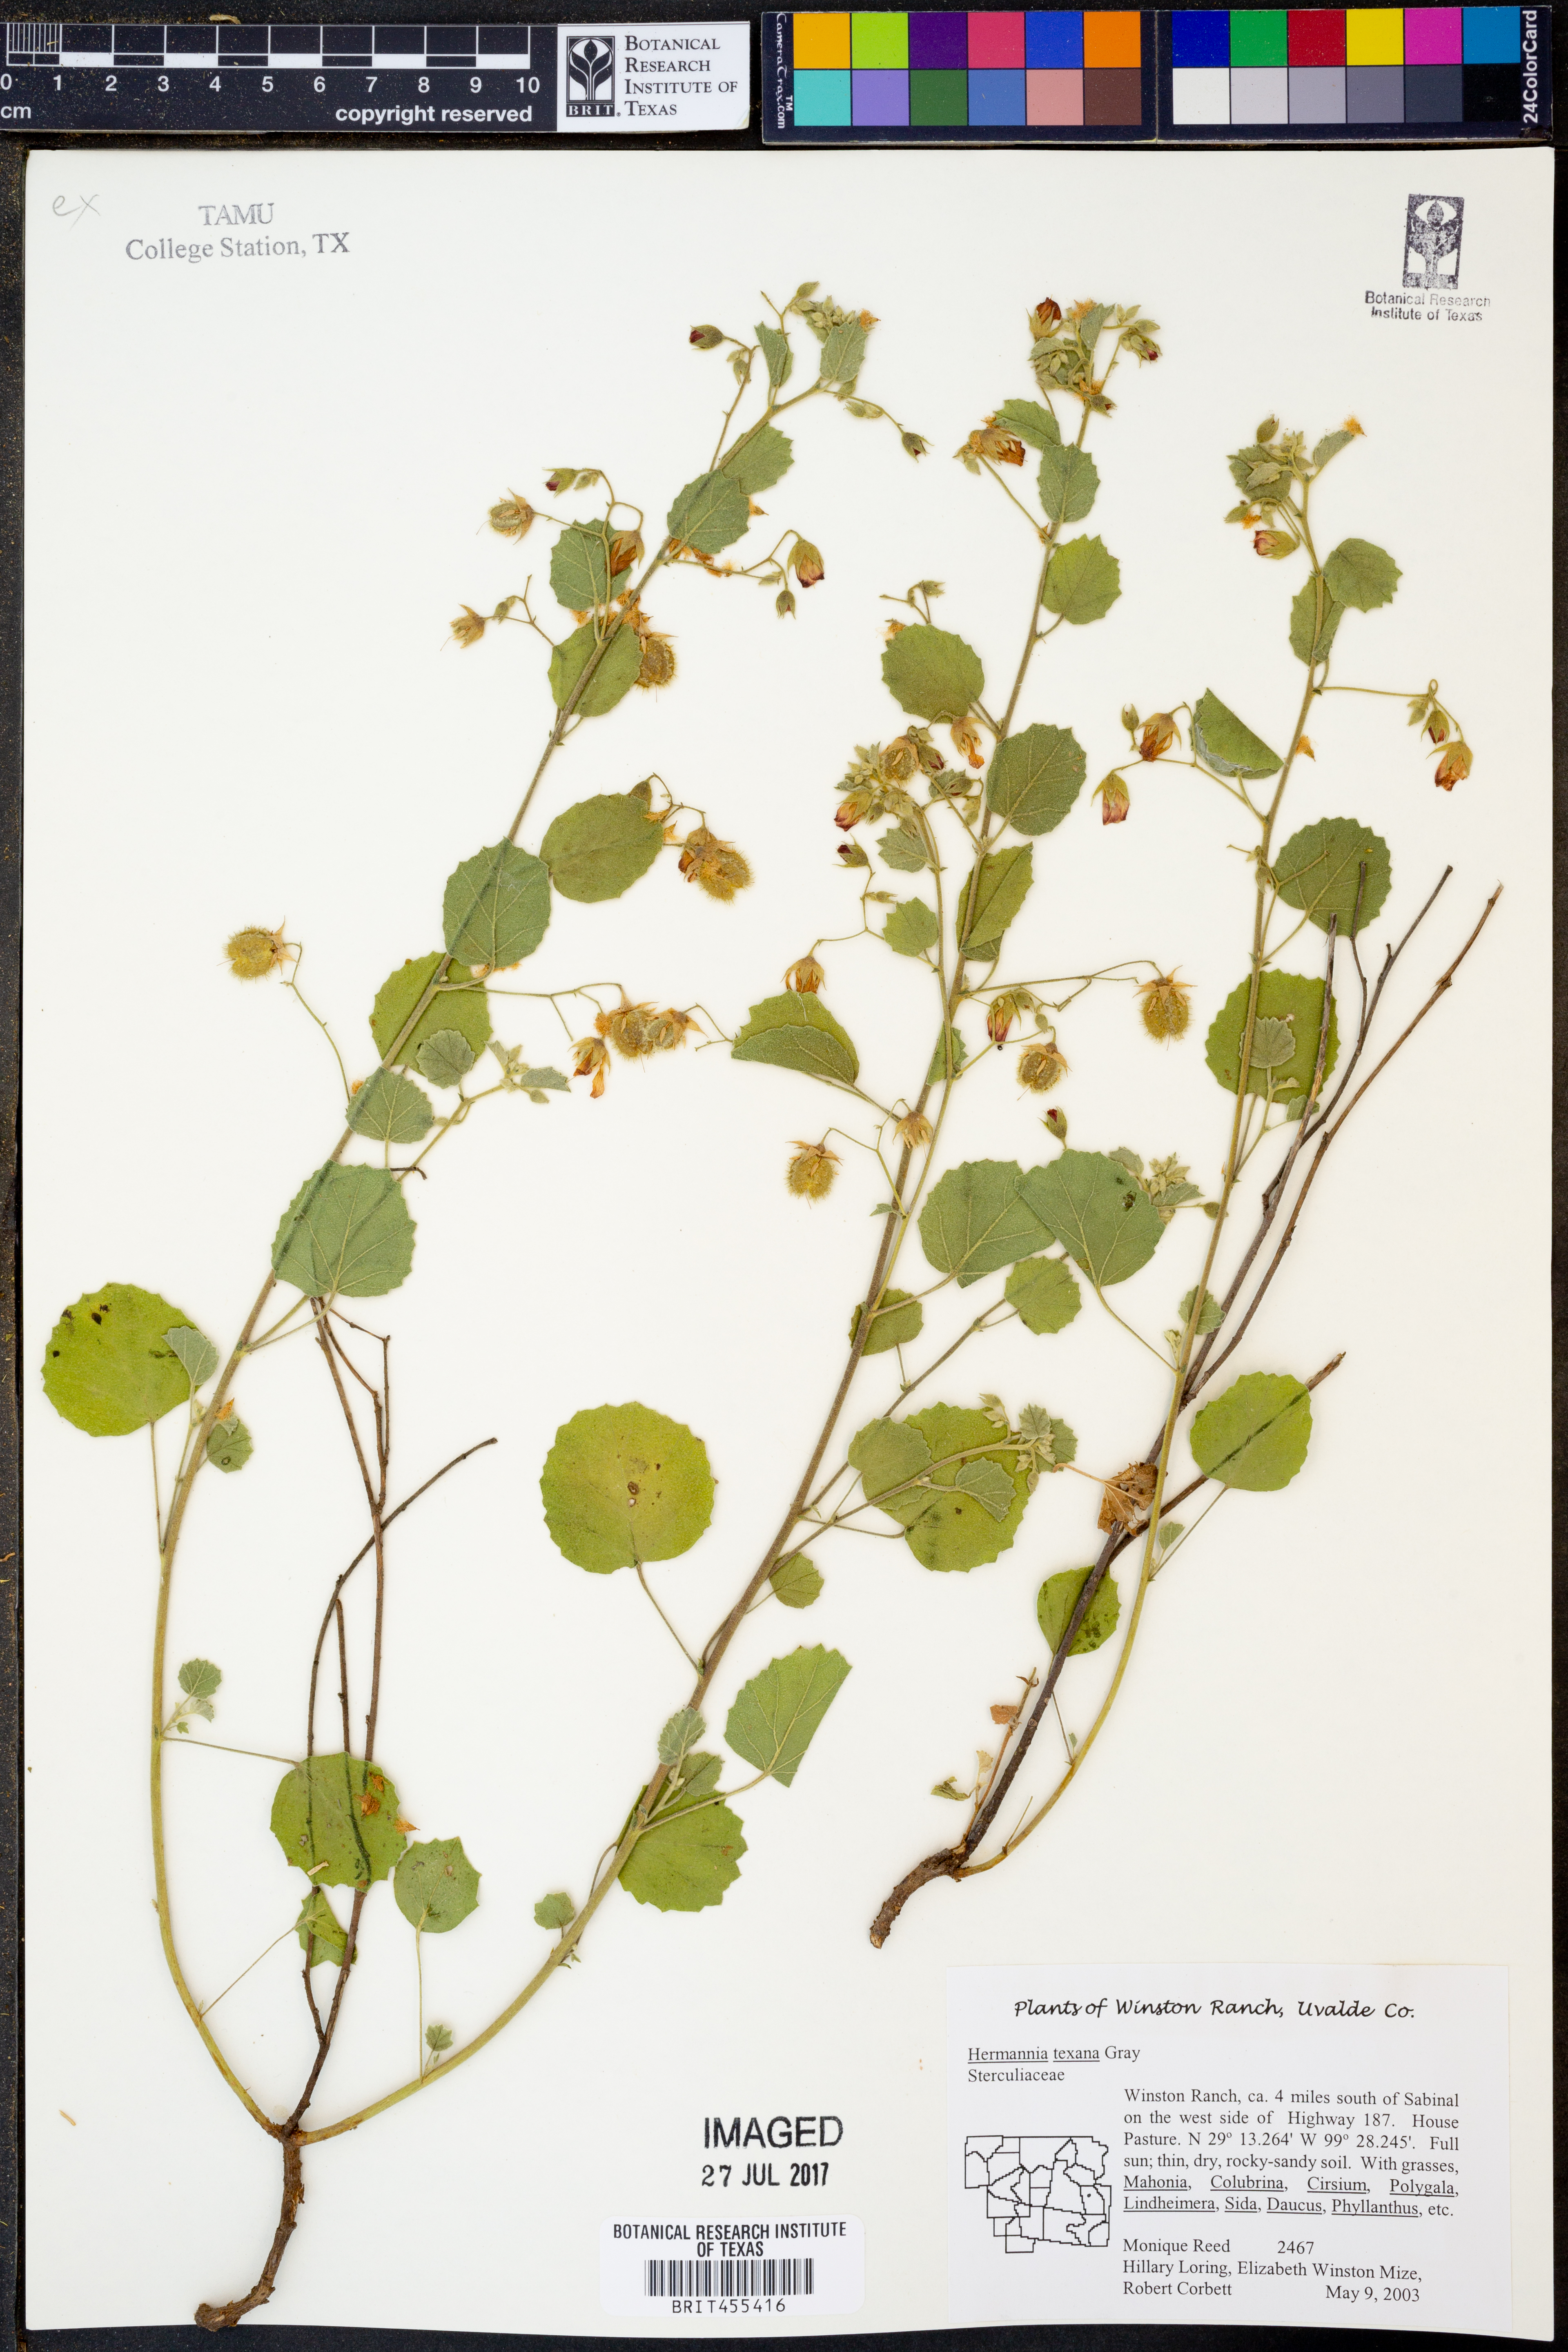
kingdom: Plantae
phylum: Tracheophyta
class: Magnoliopsida
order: Malvales
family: Malvaceae
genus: Hermannia
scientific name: Hermannia texana
